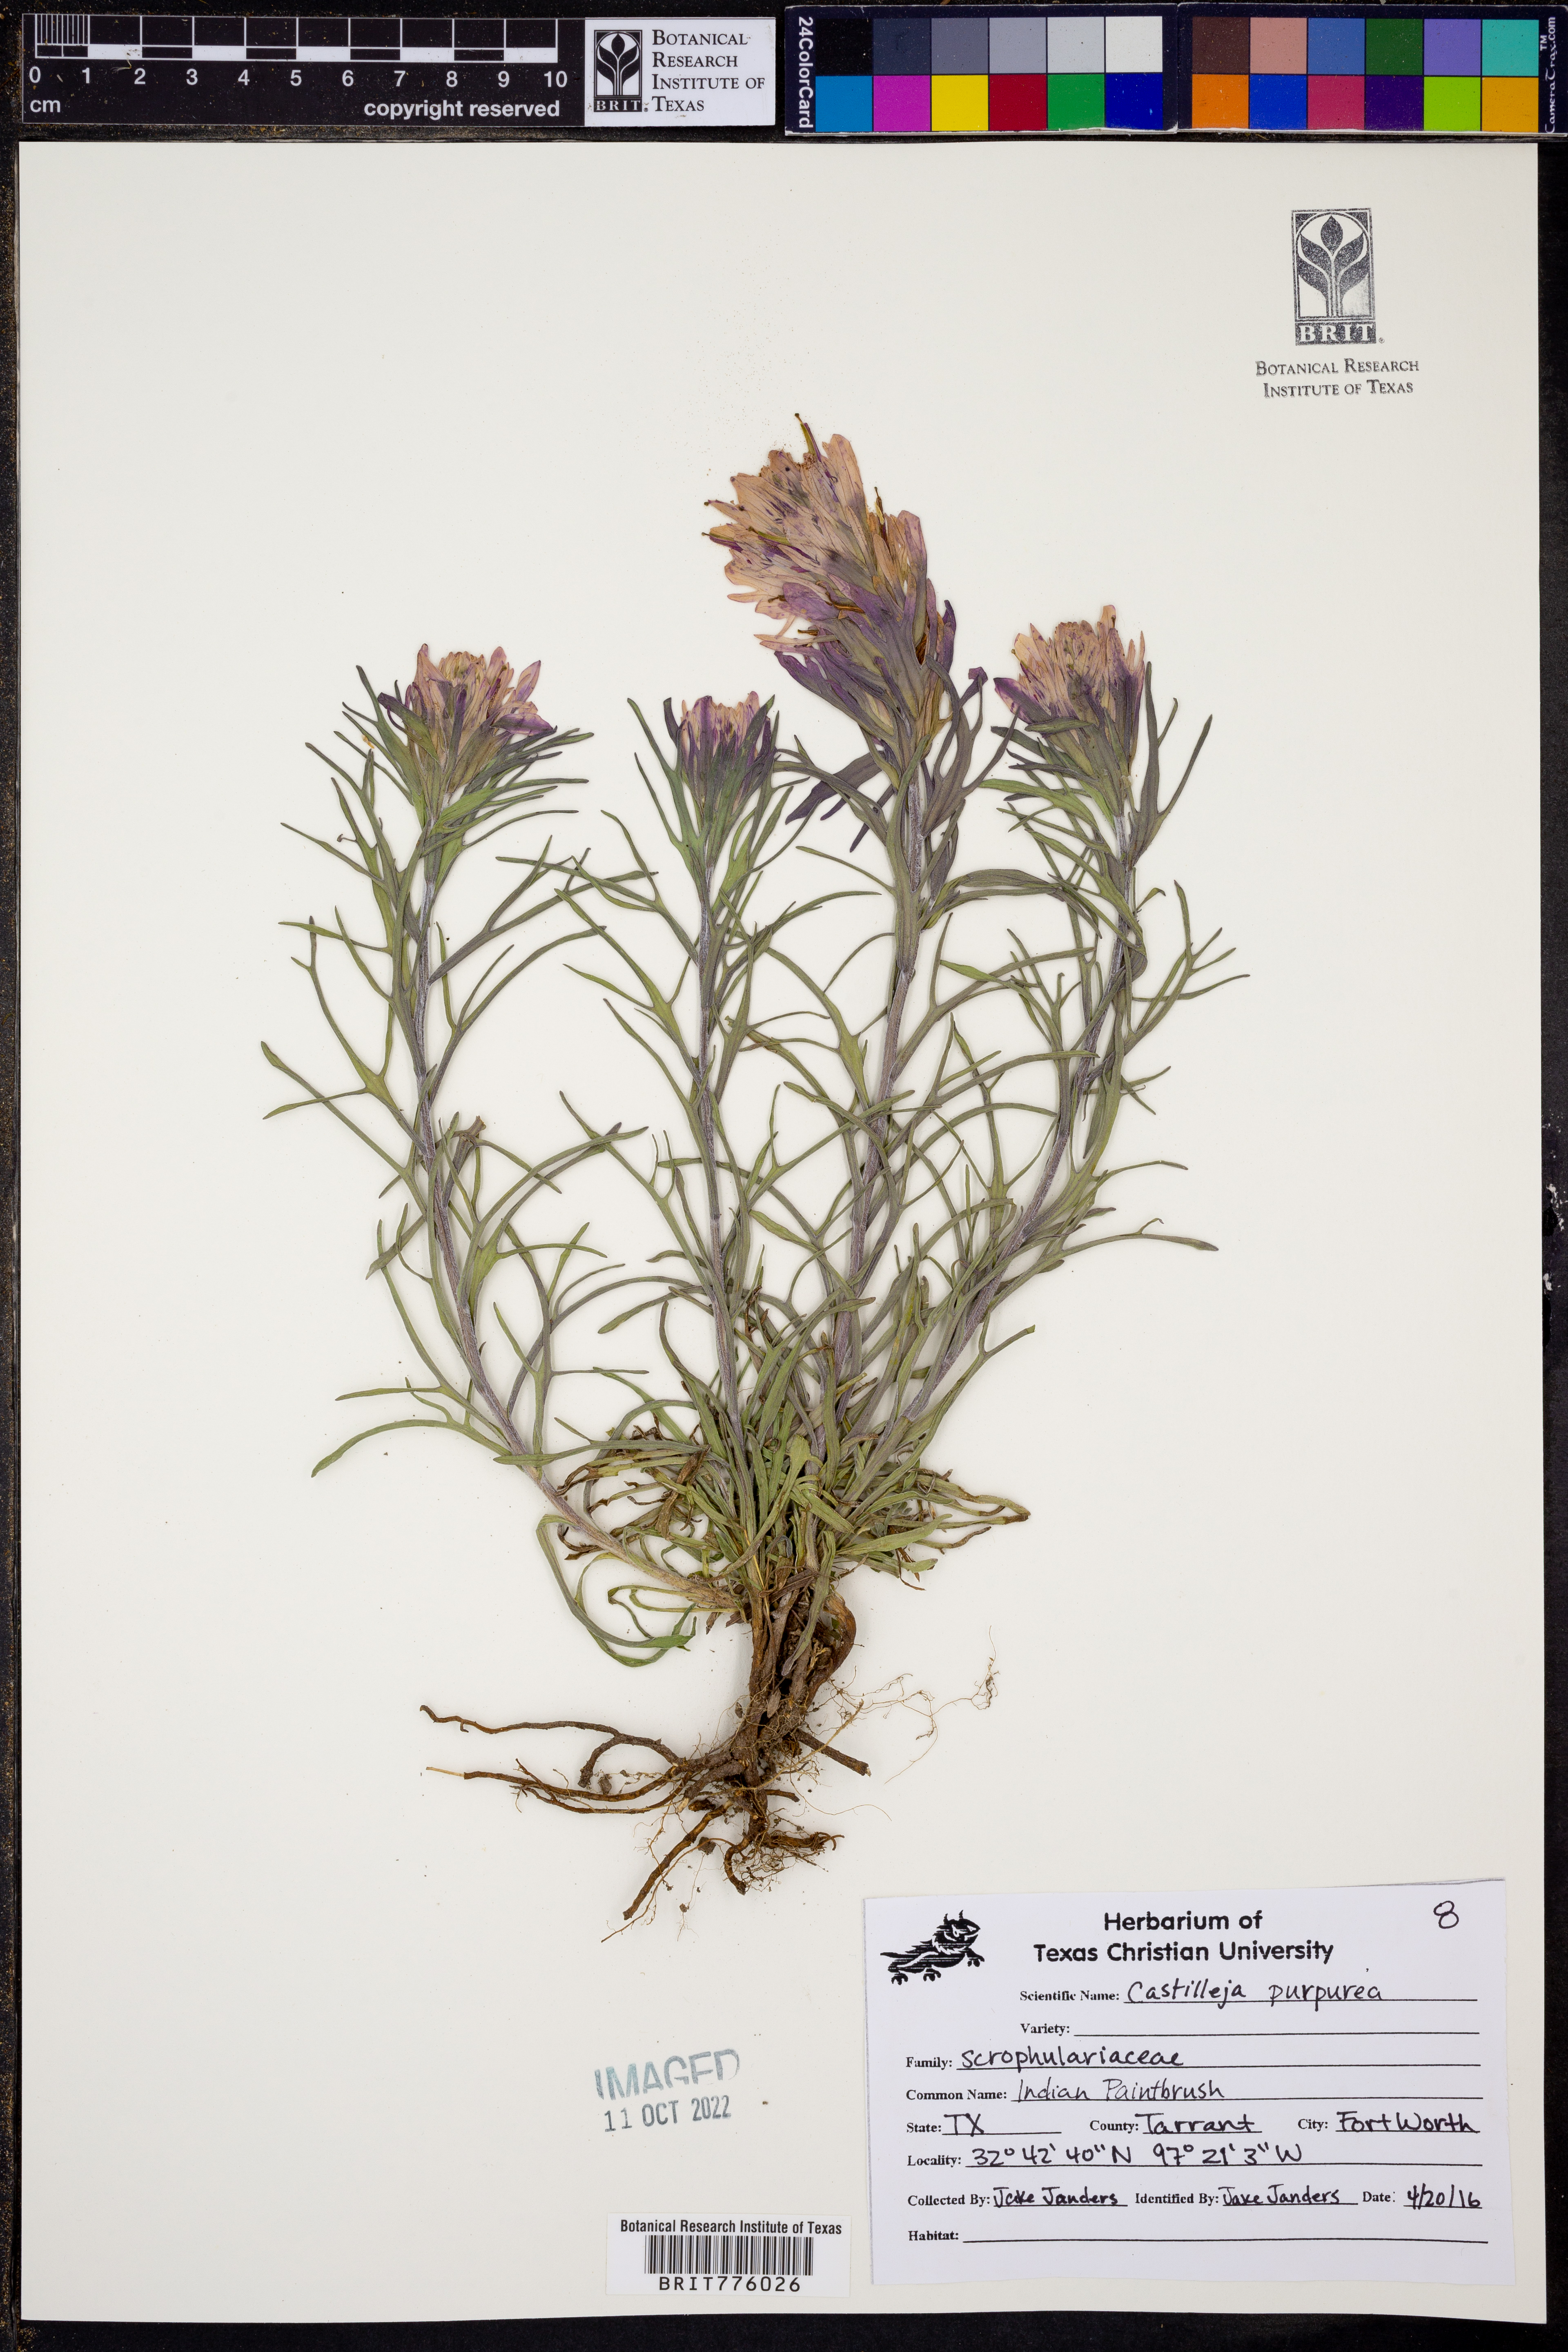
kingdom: Plantae
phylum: Tracheophyta
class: Magnoliopsida
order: Lamiales
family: Orobanchaceae
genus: Castilleja
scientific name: Castilleja purpurea
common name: Plains paintbrush
